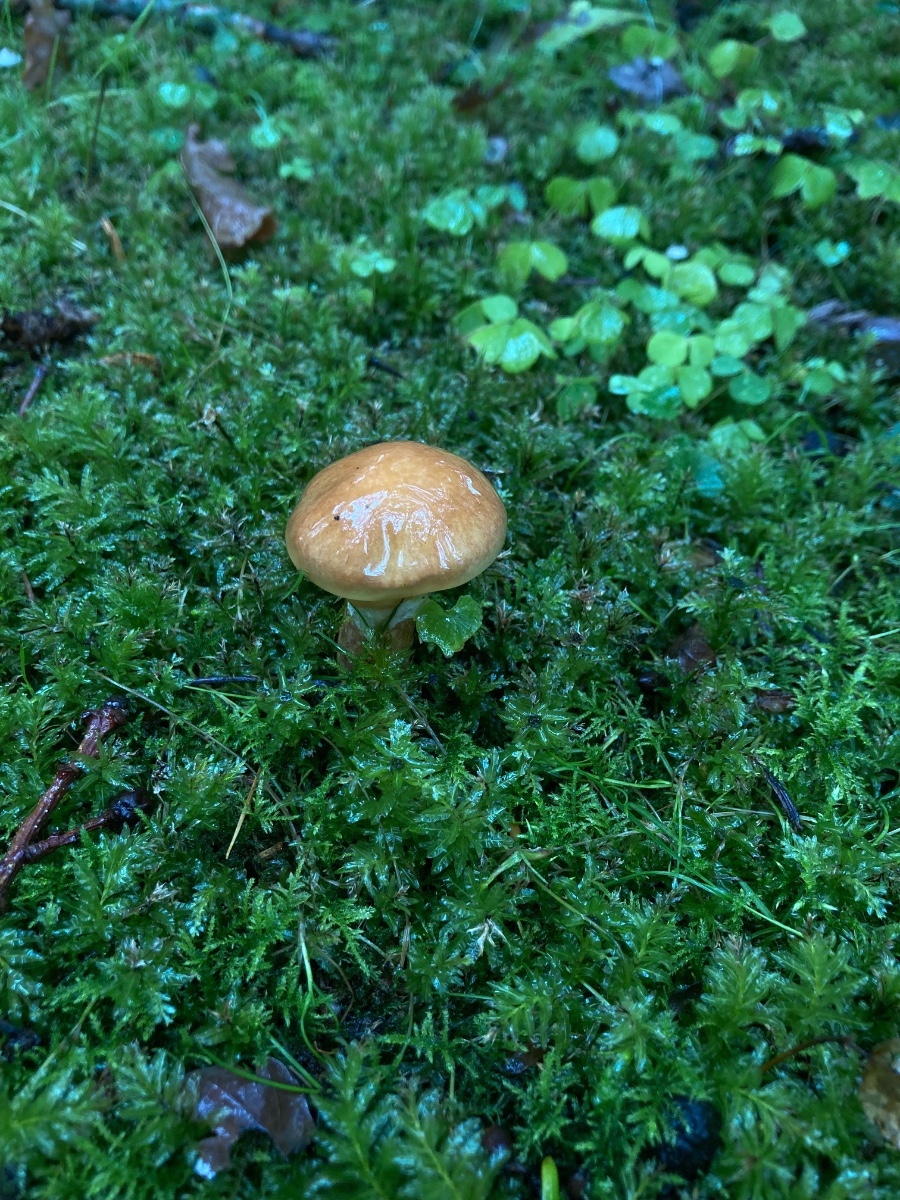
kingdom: Fungi
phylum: Basidiomycota
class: Agaricomycetes
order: Boletales
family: Suillaceae
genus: Suillus
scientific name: Suillus grevillei
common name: lærke-slimrørhat
